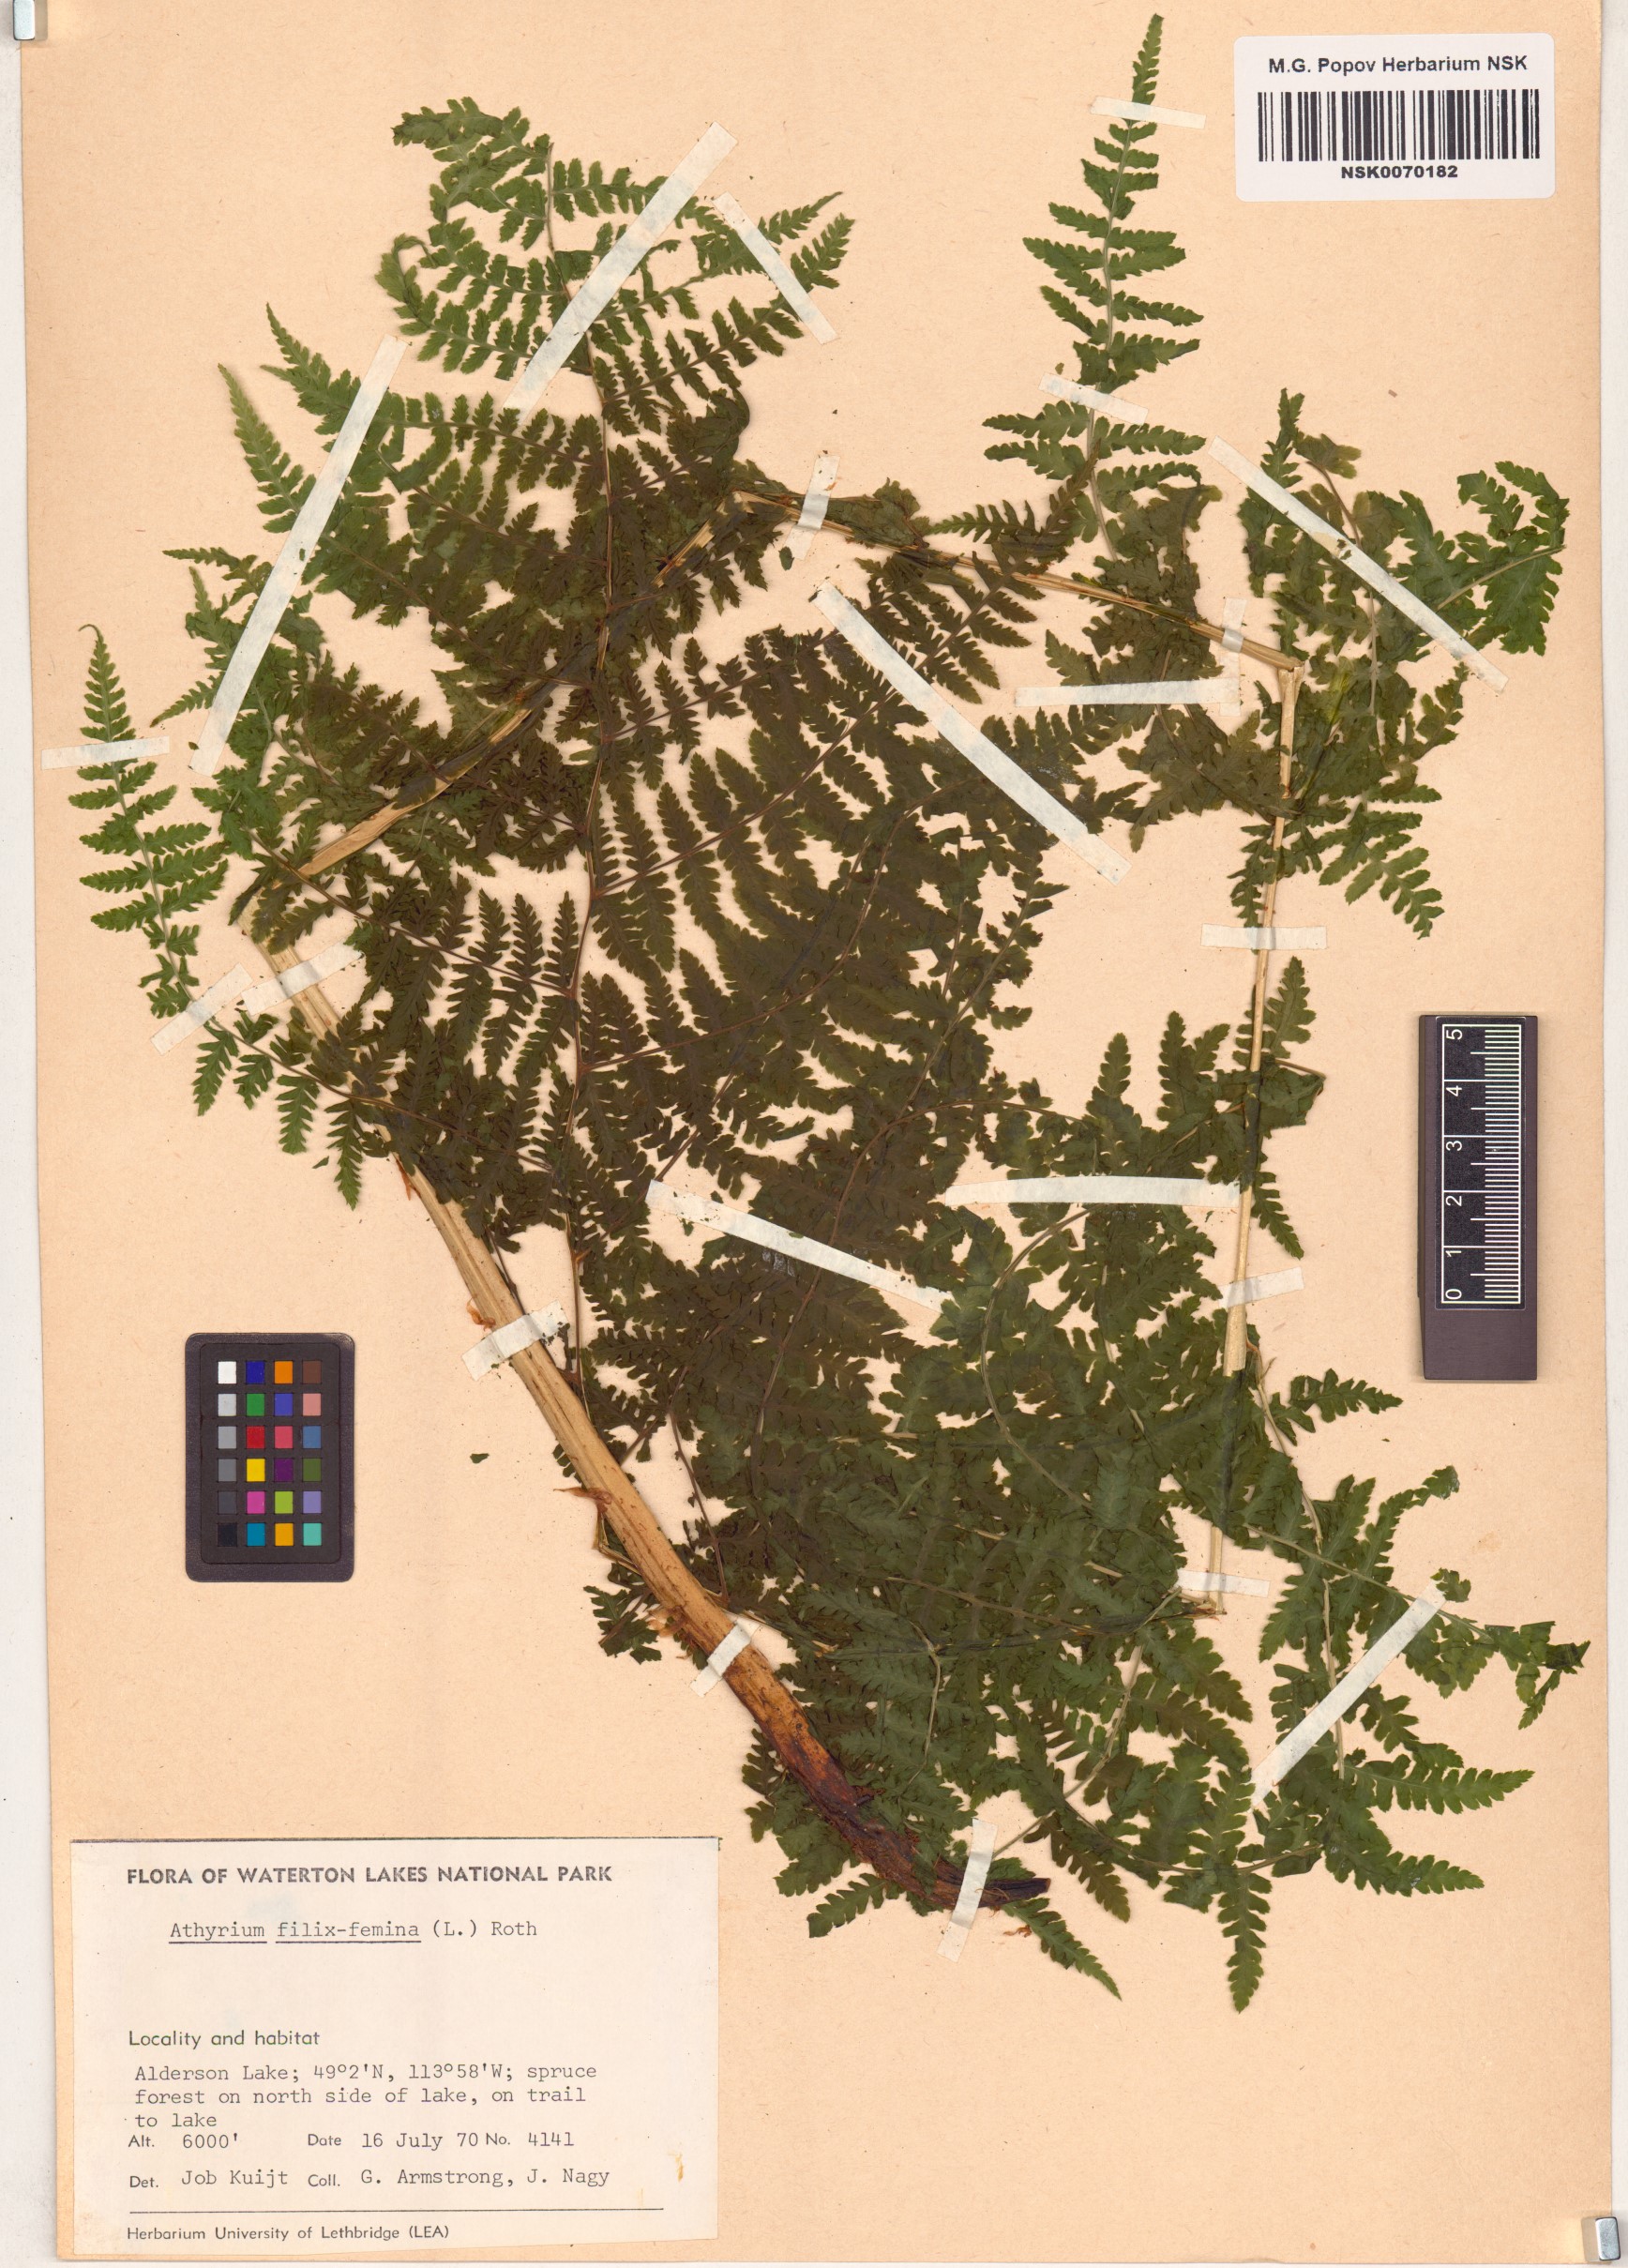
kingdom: Plantae
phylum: Tracheophyta
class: Polypodiopsida
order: Polypodiales
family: Athyriaceae
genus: Athyrium
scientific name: Athyrium filix-femina
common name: Lady fern
